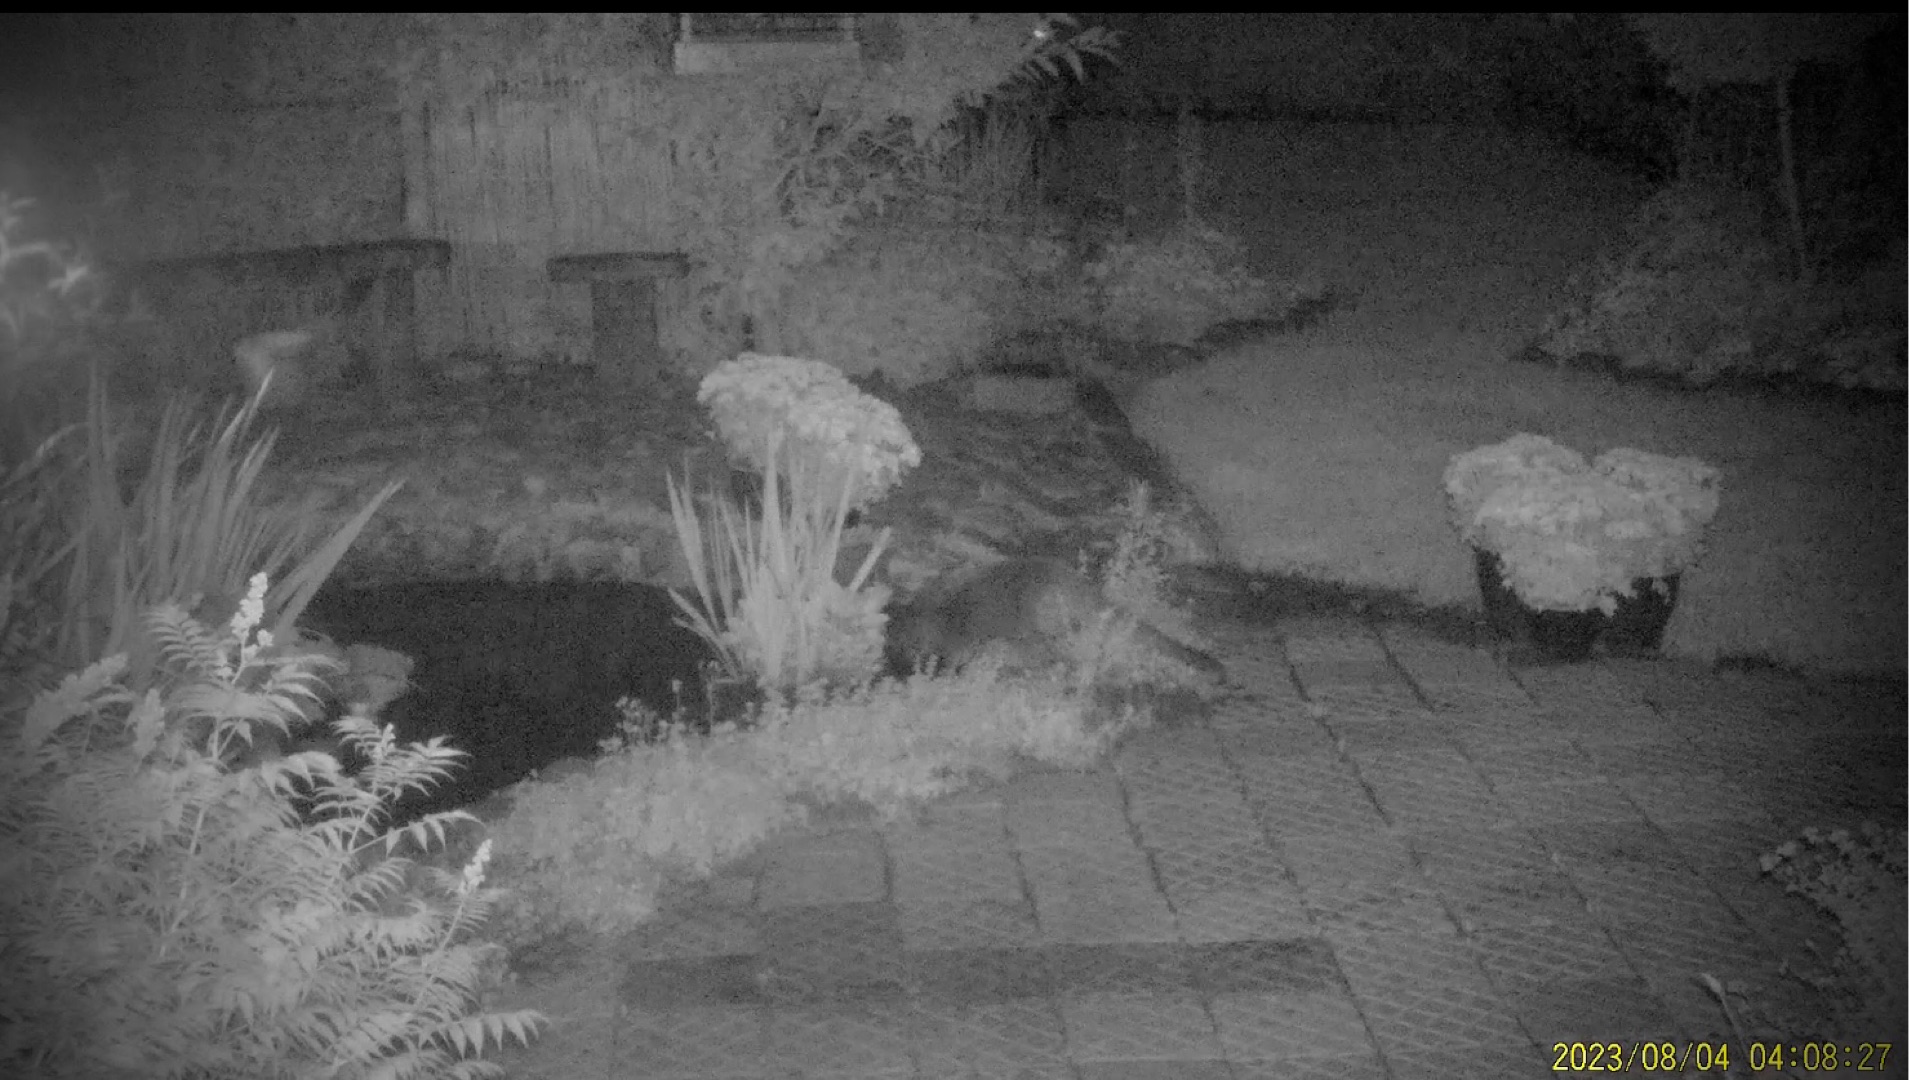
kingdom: Animalia
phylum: Chordata
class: Mammalia
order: Carnivora
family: Mustelidae
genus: Lutra
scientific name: Lutra lutra
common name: Odder
